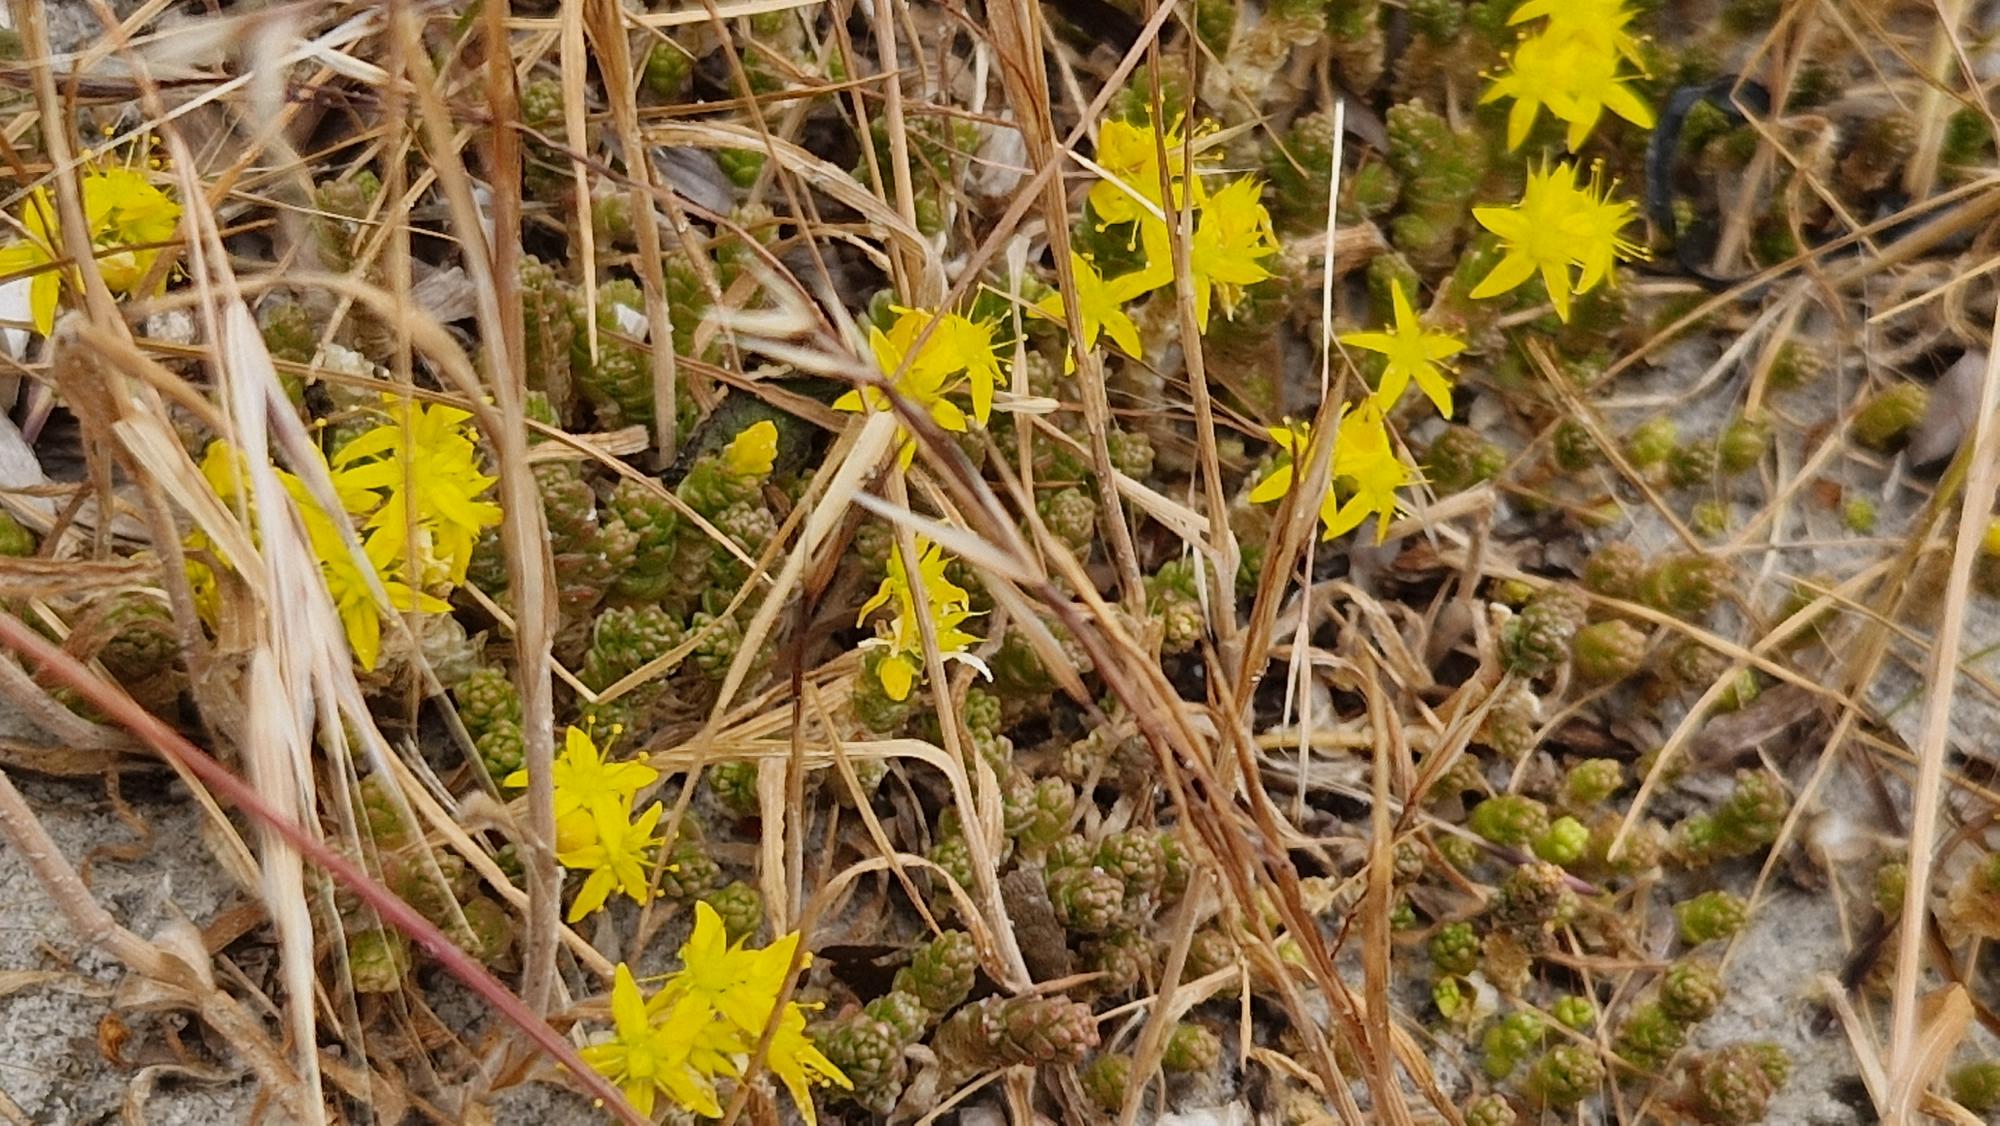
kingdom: Plantae
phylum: Tracheophyta
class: Magnoliopsida
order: Saxifragales
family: Crassulaceae
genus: Sedum
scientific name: Sedum acre
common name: Bidende stenurt
